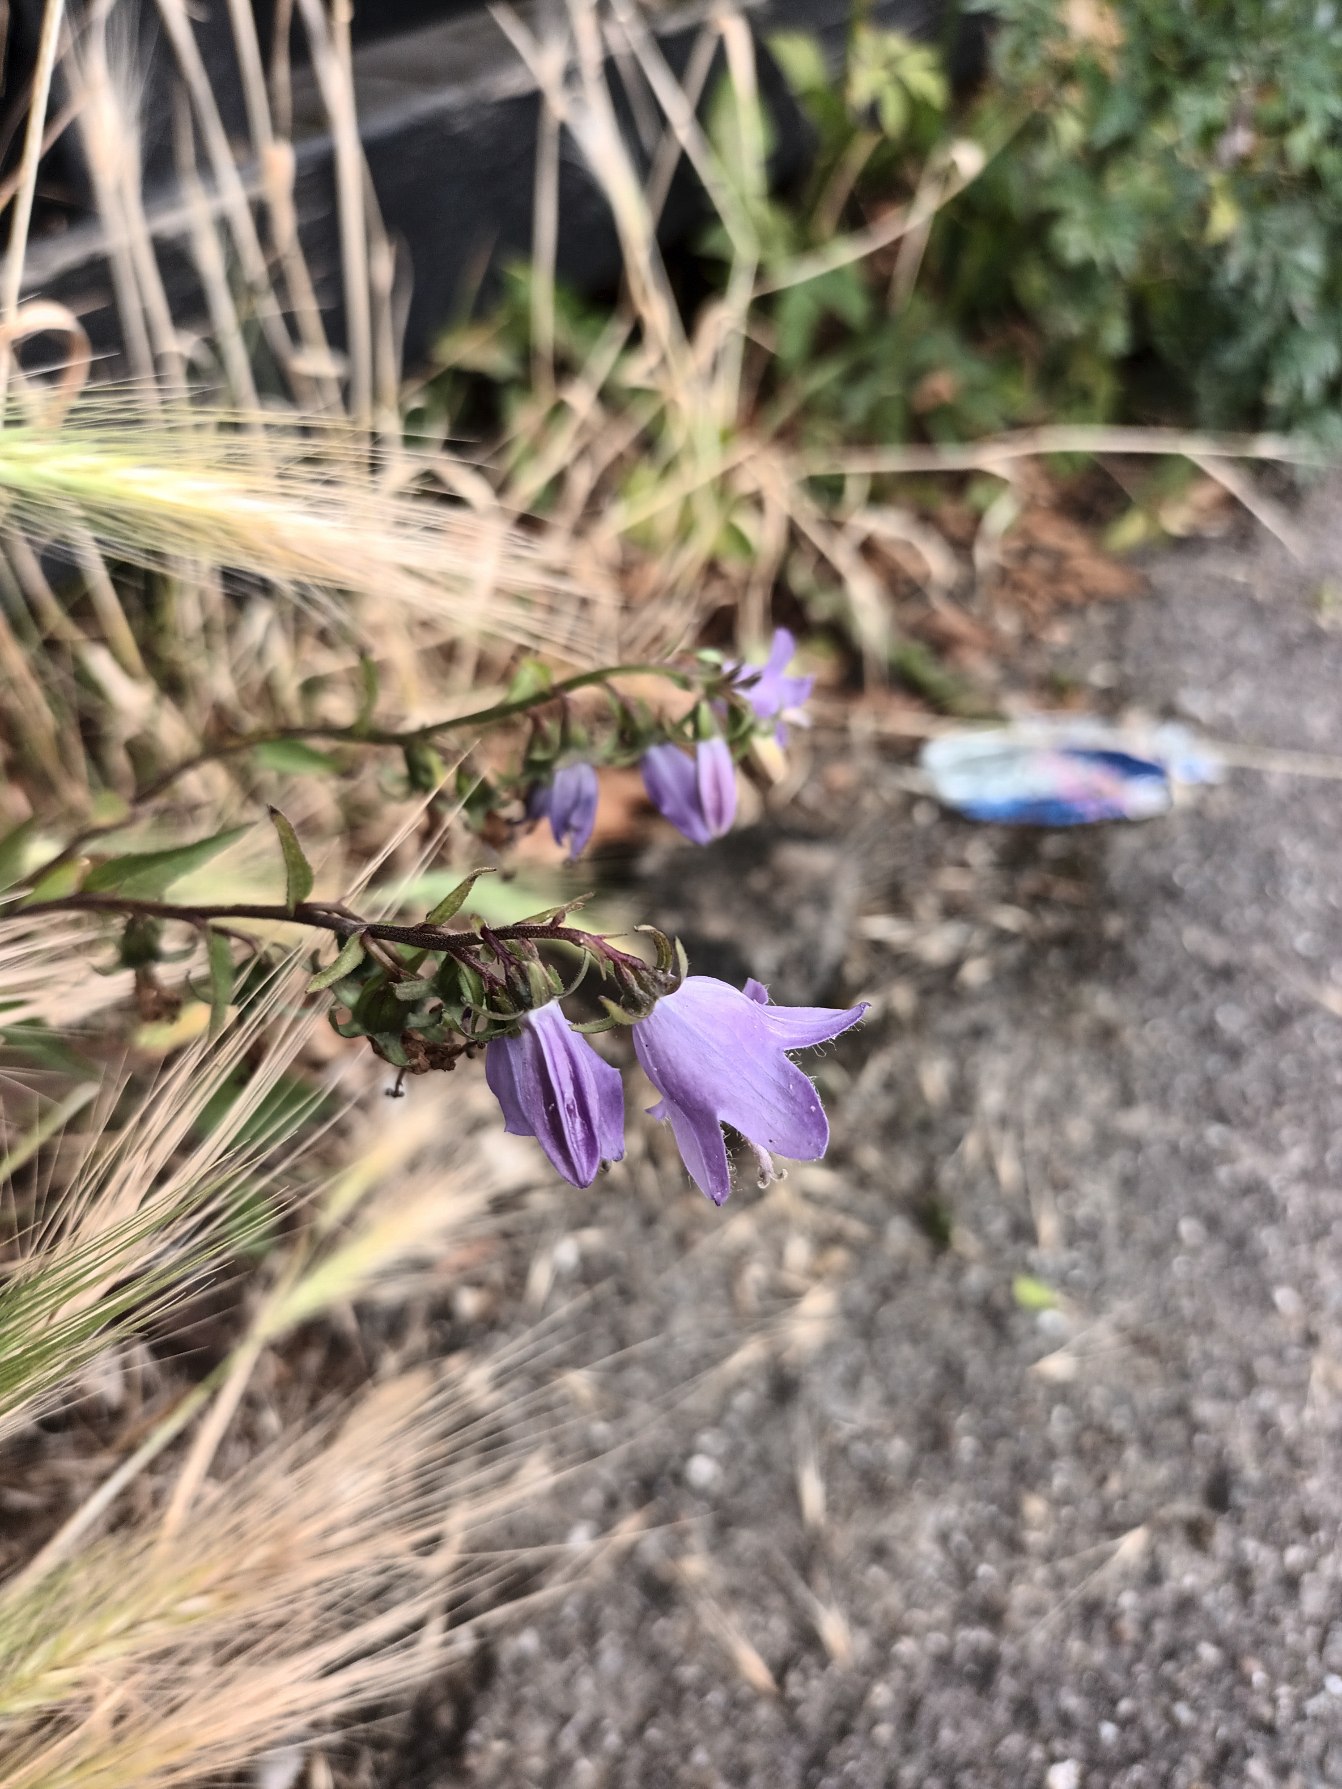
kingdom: Plantae
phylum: Tracheophyta
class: Magnoliopsida
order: Asterales
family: Campanulaceae
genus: Campanula
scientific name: Campanula rapunculoides
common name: Ensidig klokke
